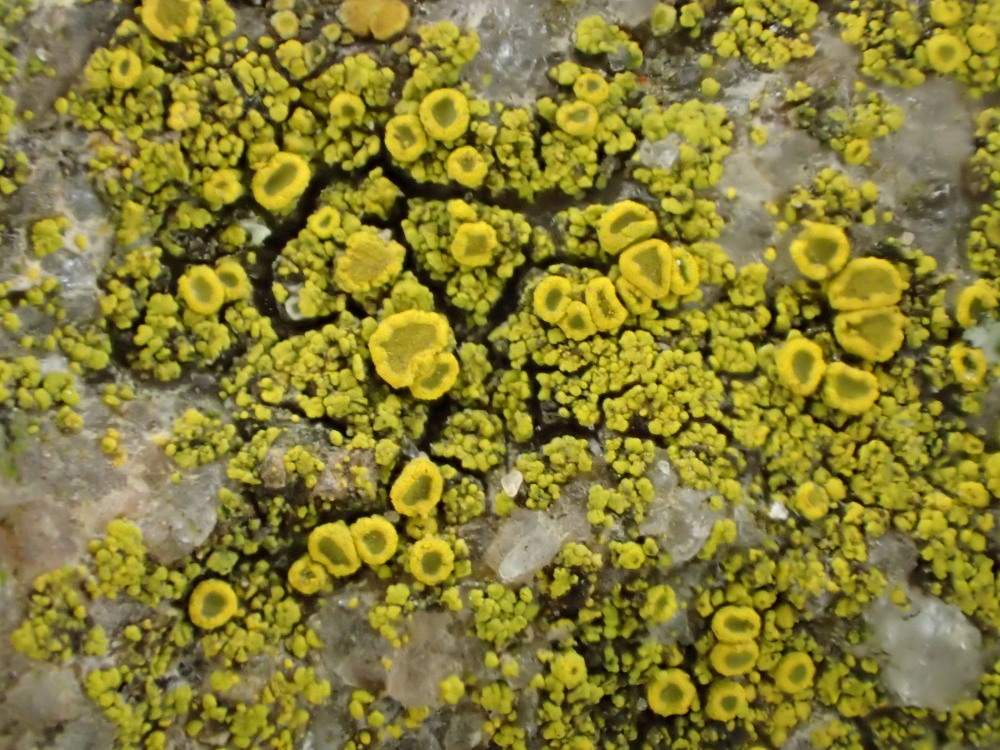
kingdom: Fungi
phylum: Ascomycota
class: Candelariomycetes
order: Candelariales
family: Candelariaceae
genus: Candelariella
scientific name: Candelariella vitellina
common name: almindelig æggeblommelav
